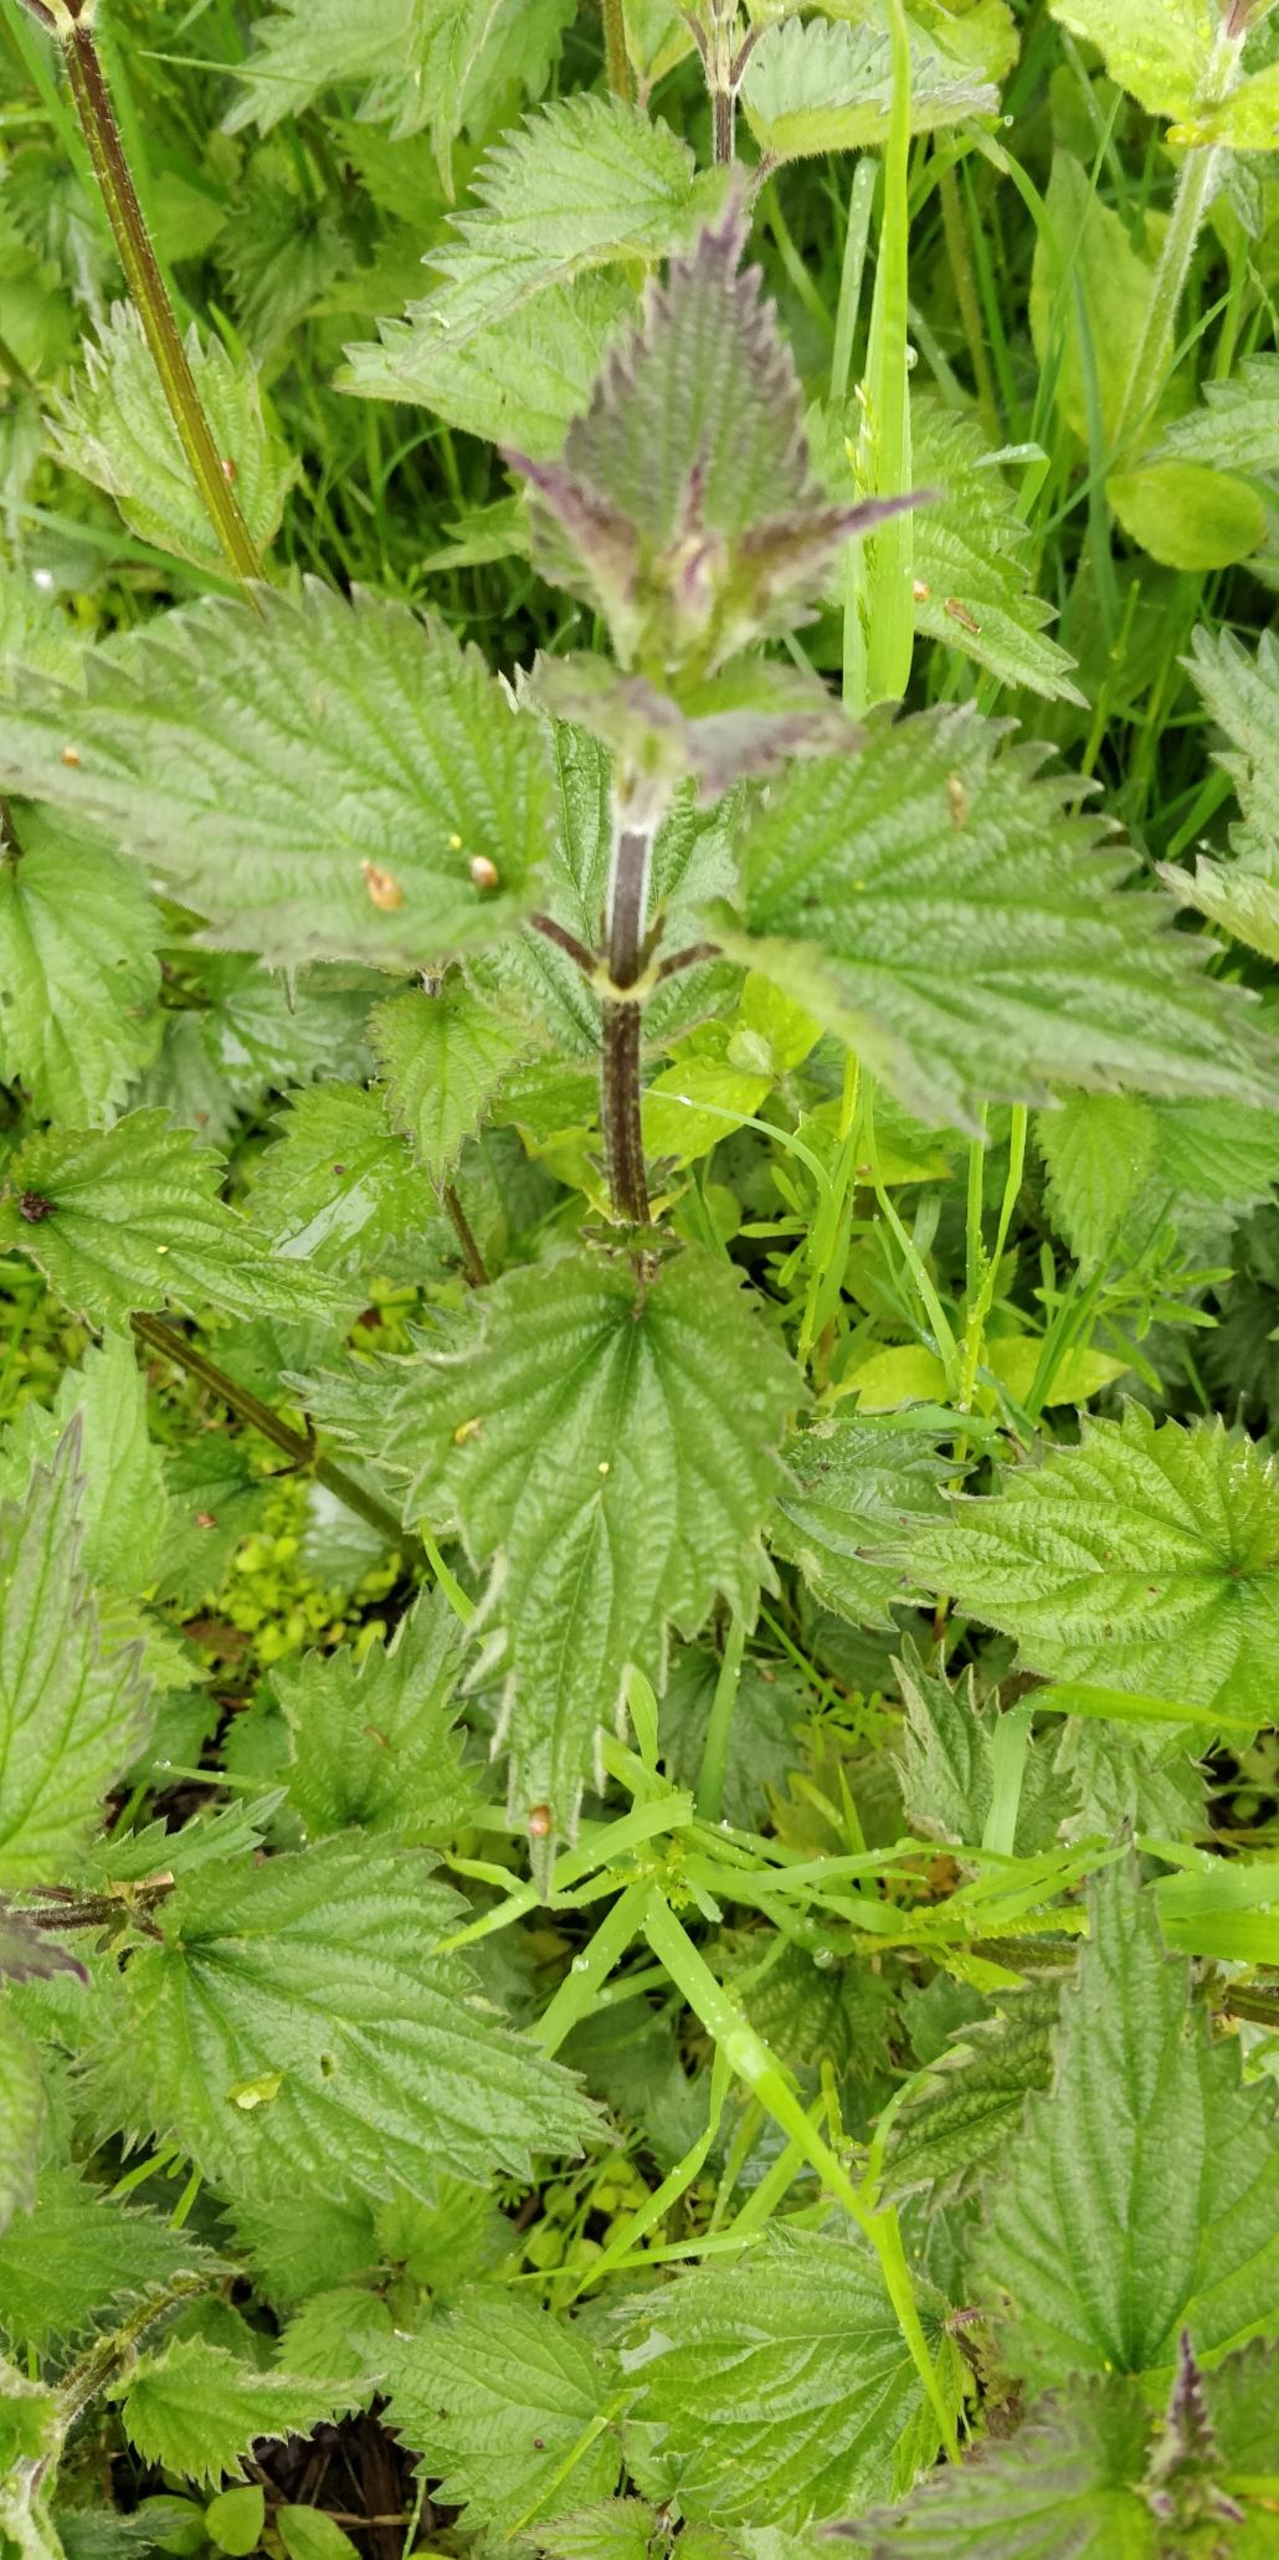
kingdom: Plantae
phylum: Tracheophyta
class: Magnoliopsida
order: Rosales
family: Urticaceae
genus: Urtica
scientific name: Urtica dioica
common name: Stor nælde
